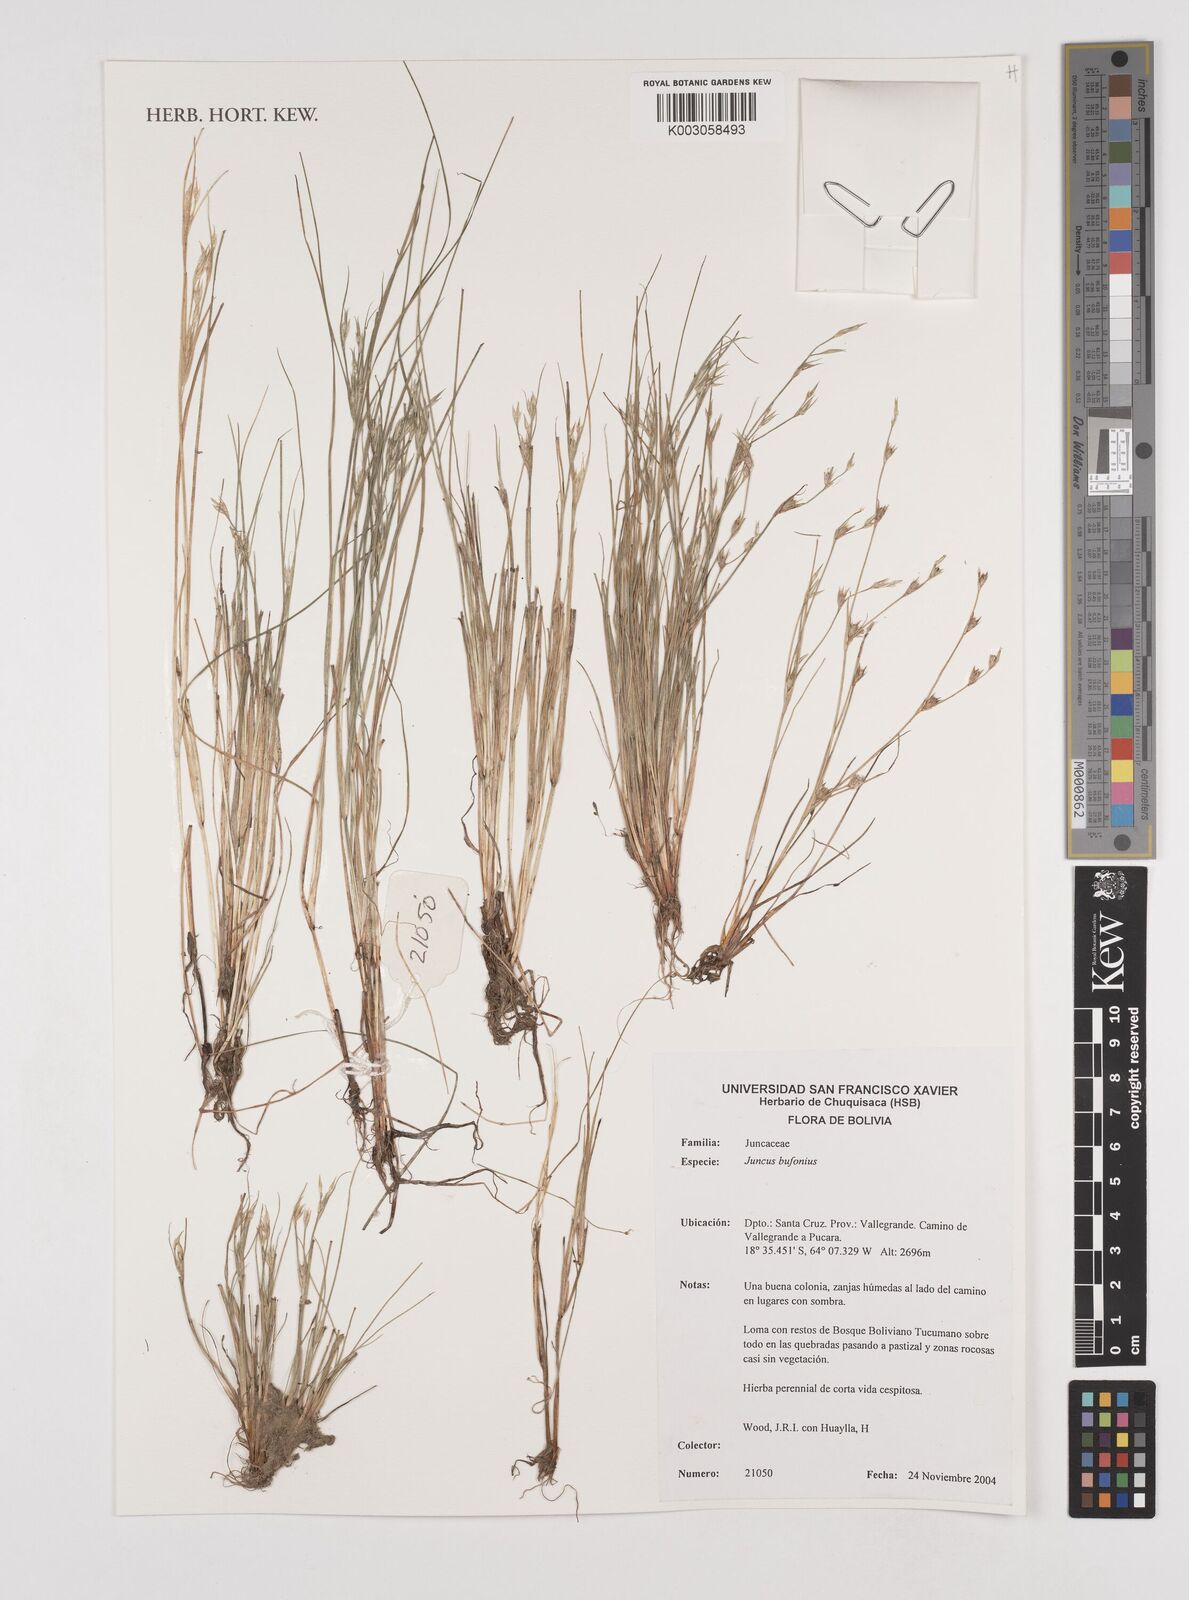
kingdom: Plantae
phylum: Tracheophyta
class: Liliopsida
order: Poales
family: Juncaceae
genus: Juncus
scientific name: Juncus bufonius
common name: Toad rush
